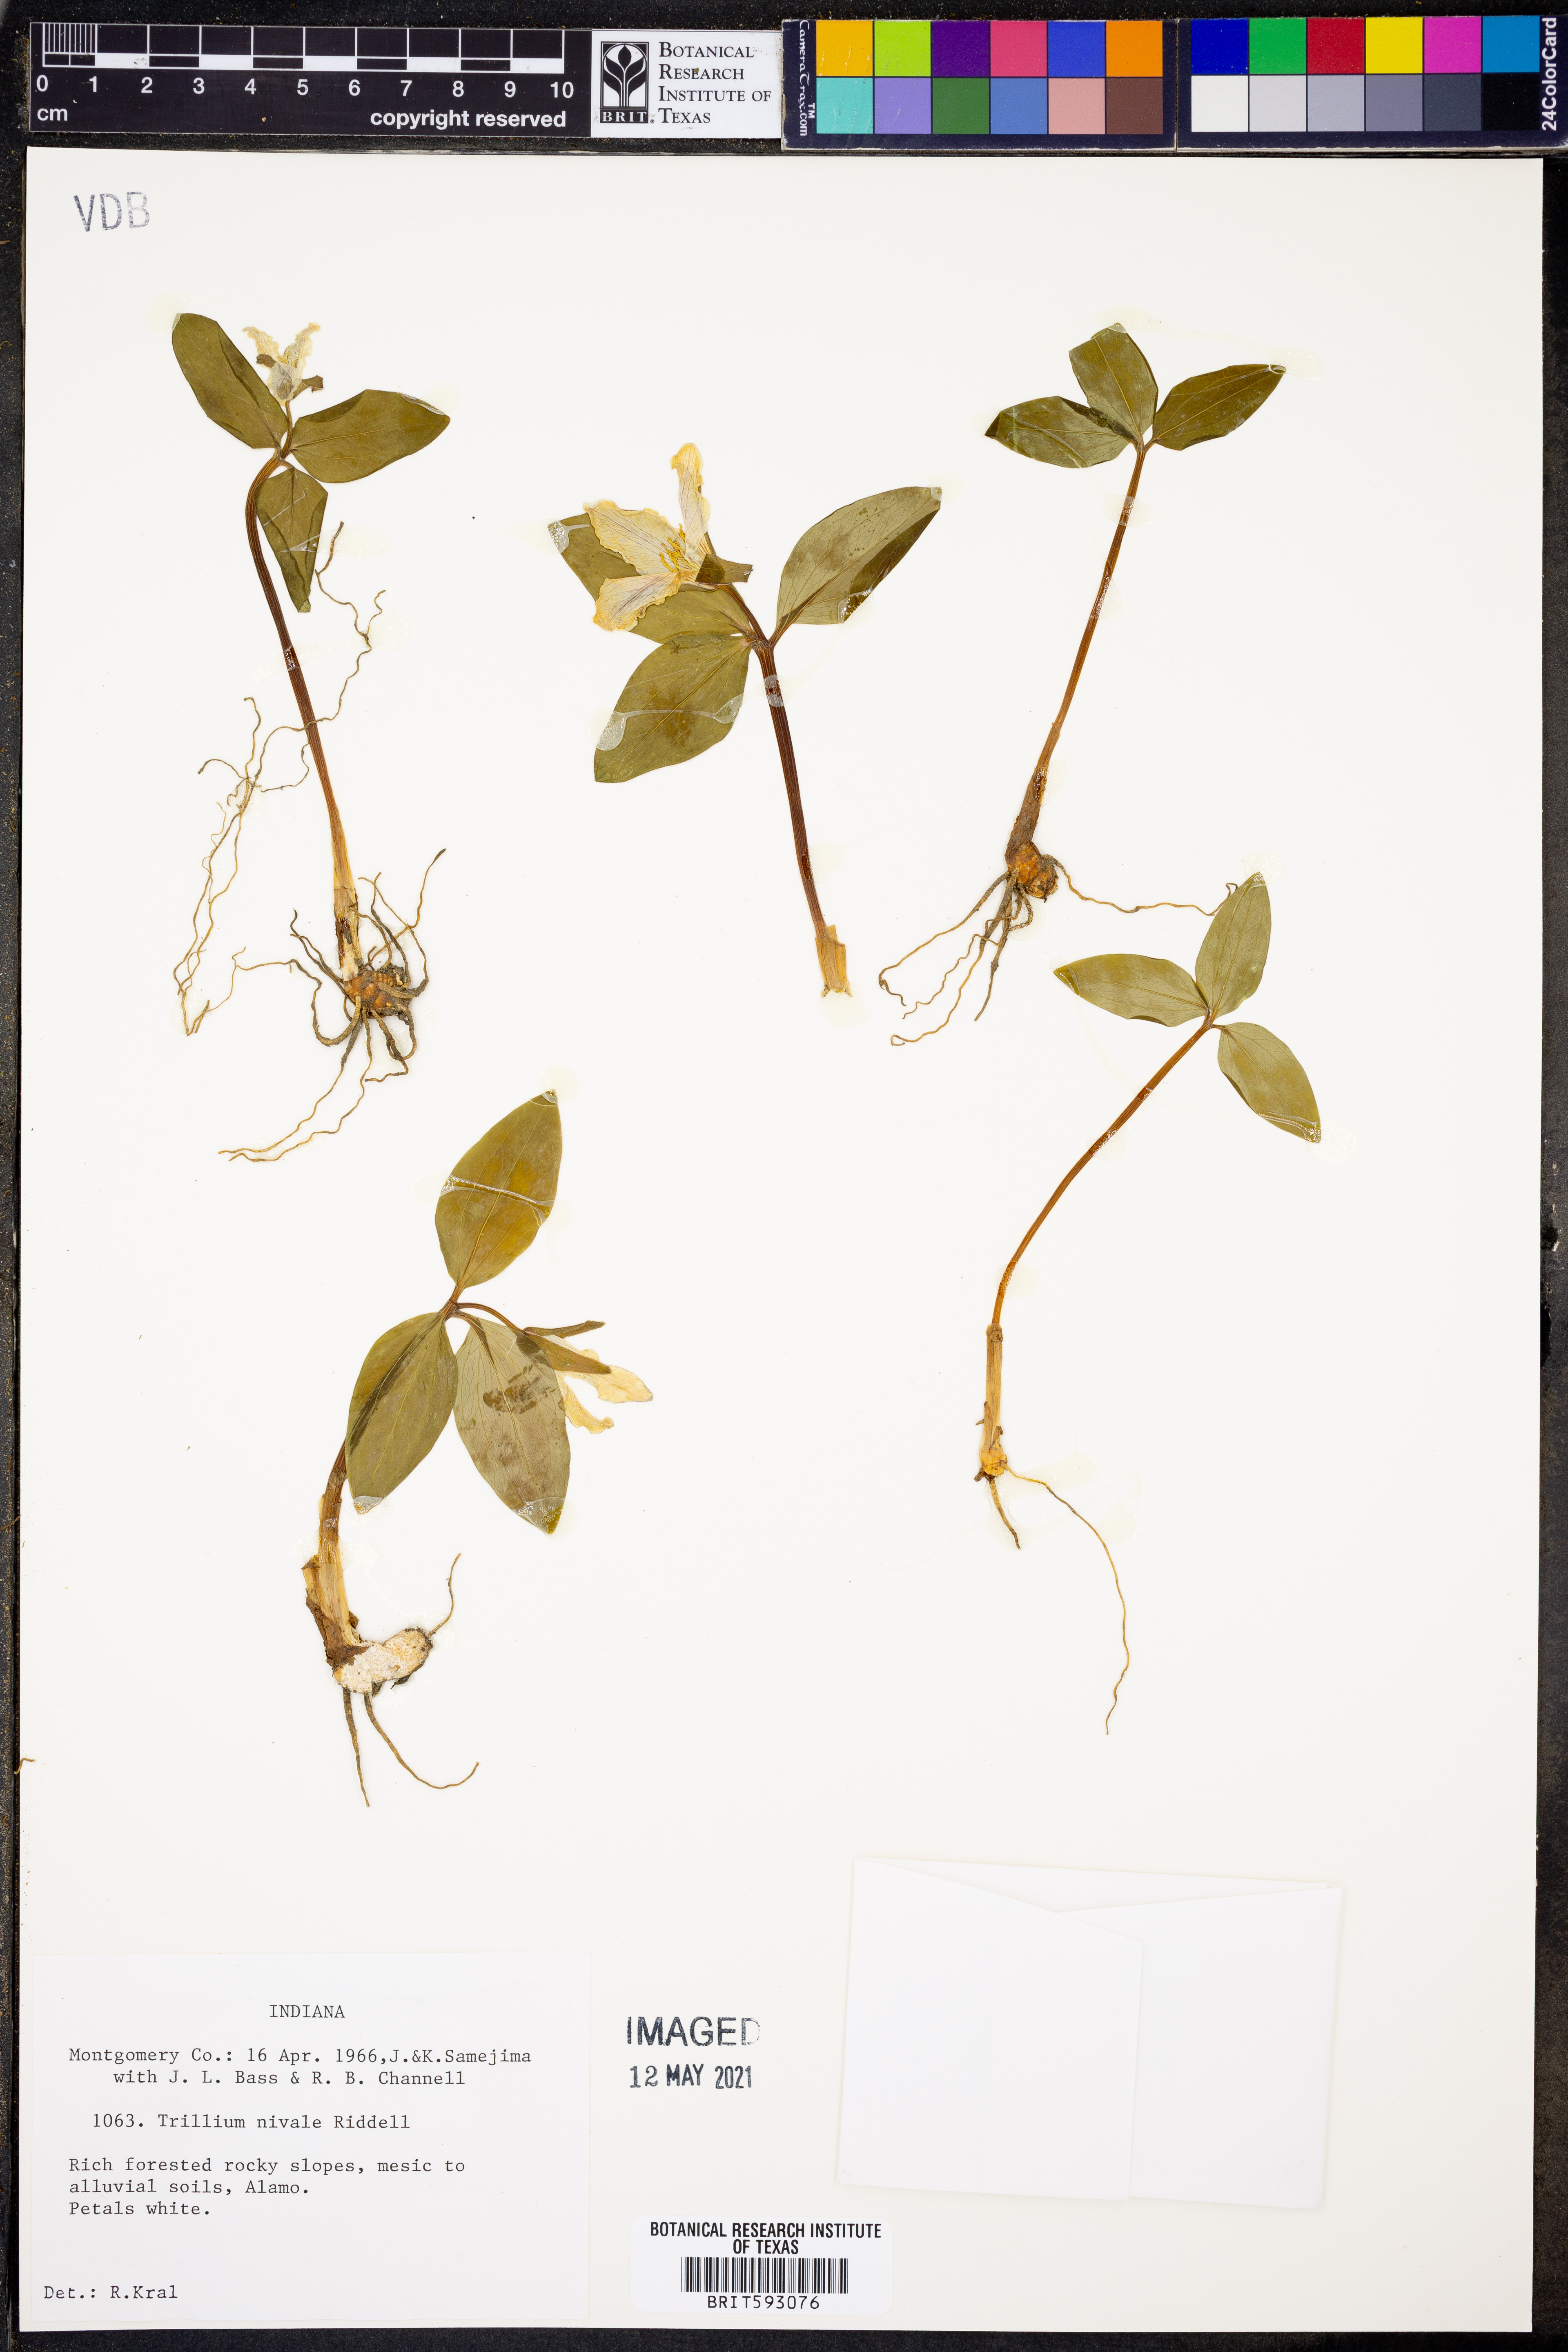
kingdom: Plantae
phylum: Tracheophyta
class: Liliopsida
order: Liliales
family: Melanthiaceae
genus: Trillium
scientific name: Trillium nivale
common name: Dwarf white trillium
